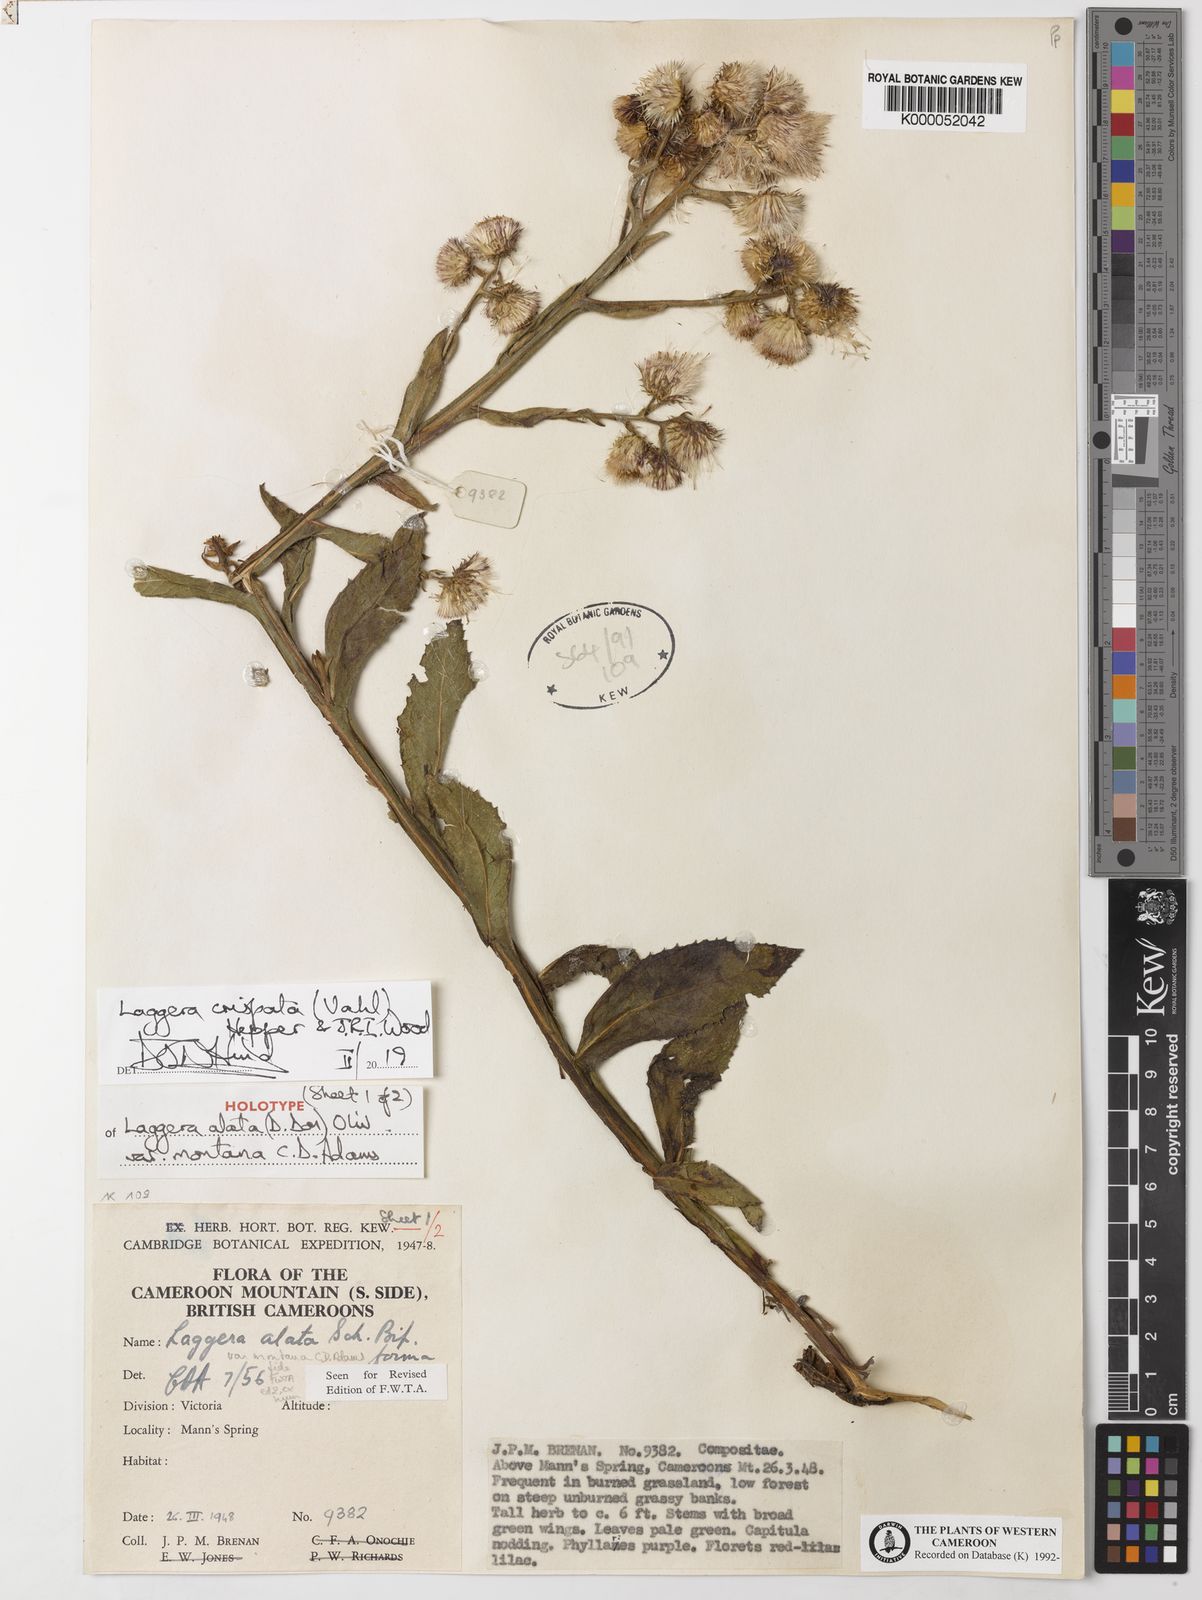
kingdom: Plantae
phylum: Tracheophyta
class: Magnoliopsida
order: Asterales
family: Asteraceae
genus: Laggera
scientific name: Laggera crispata
